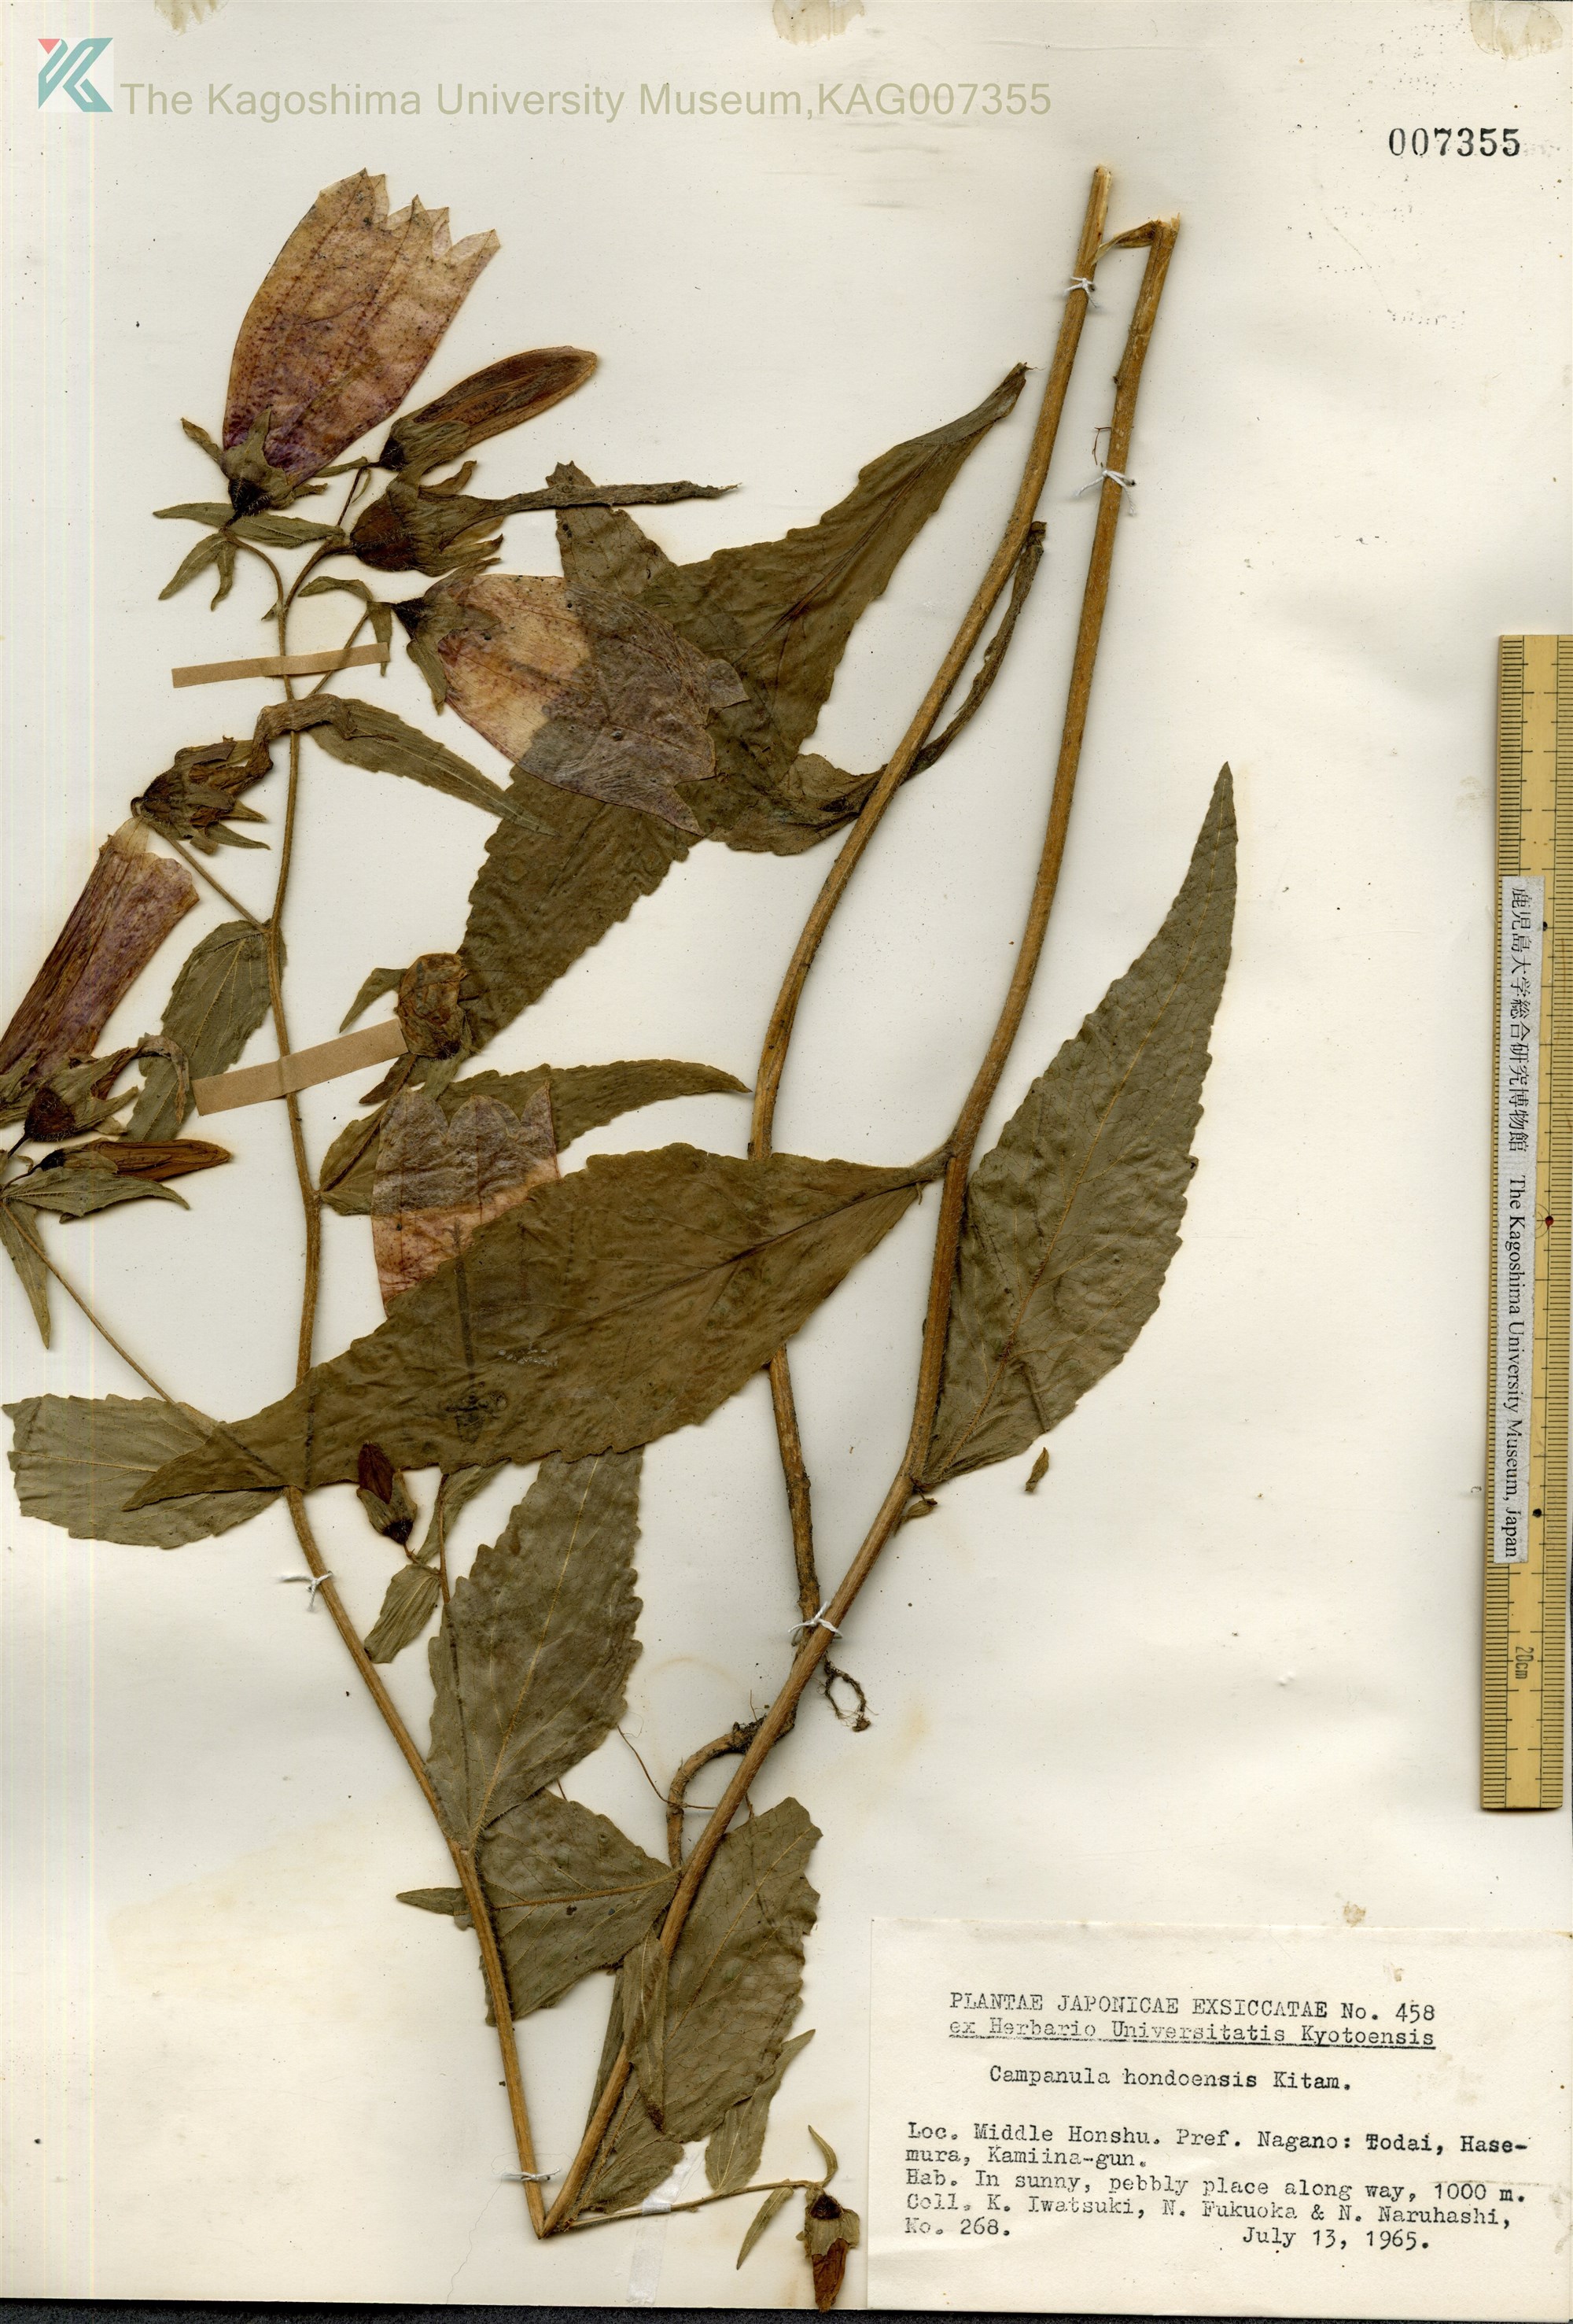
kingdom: Plantae
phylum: Tracheophyta
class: Magnoliopsida
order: Asterales
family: Campanulaceae
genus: Campanula
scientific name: Campanula punctata
